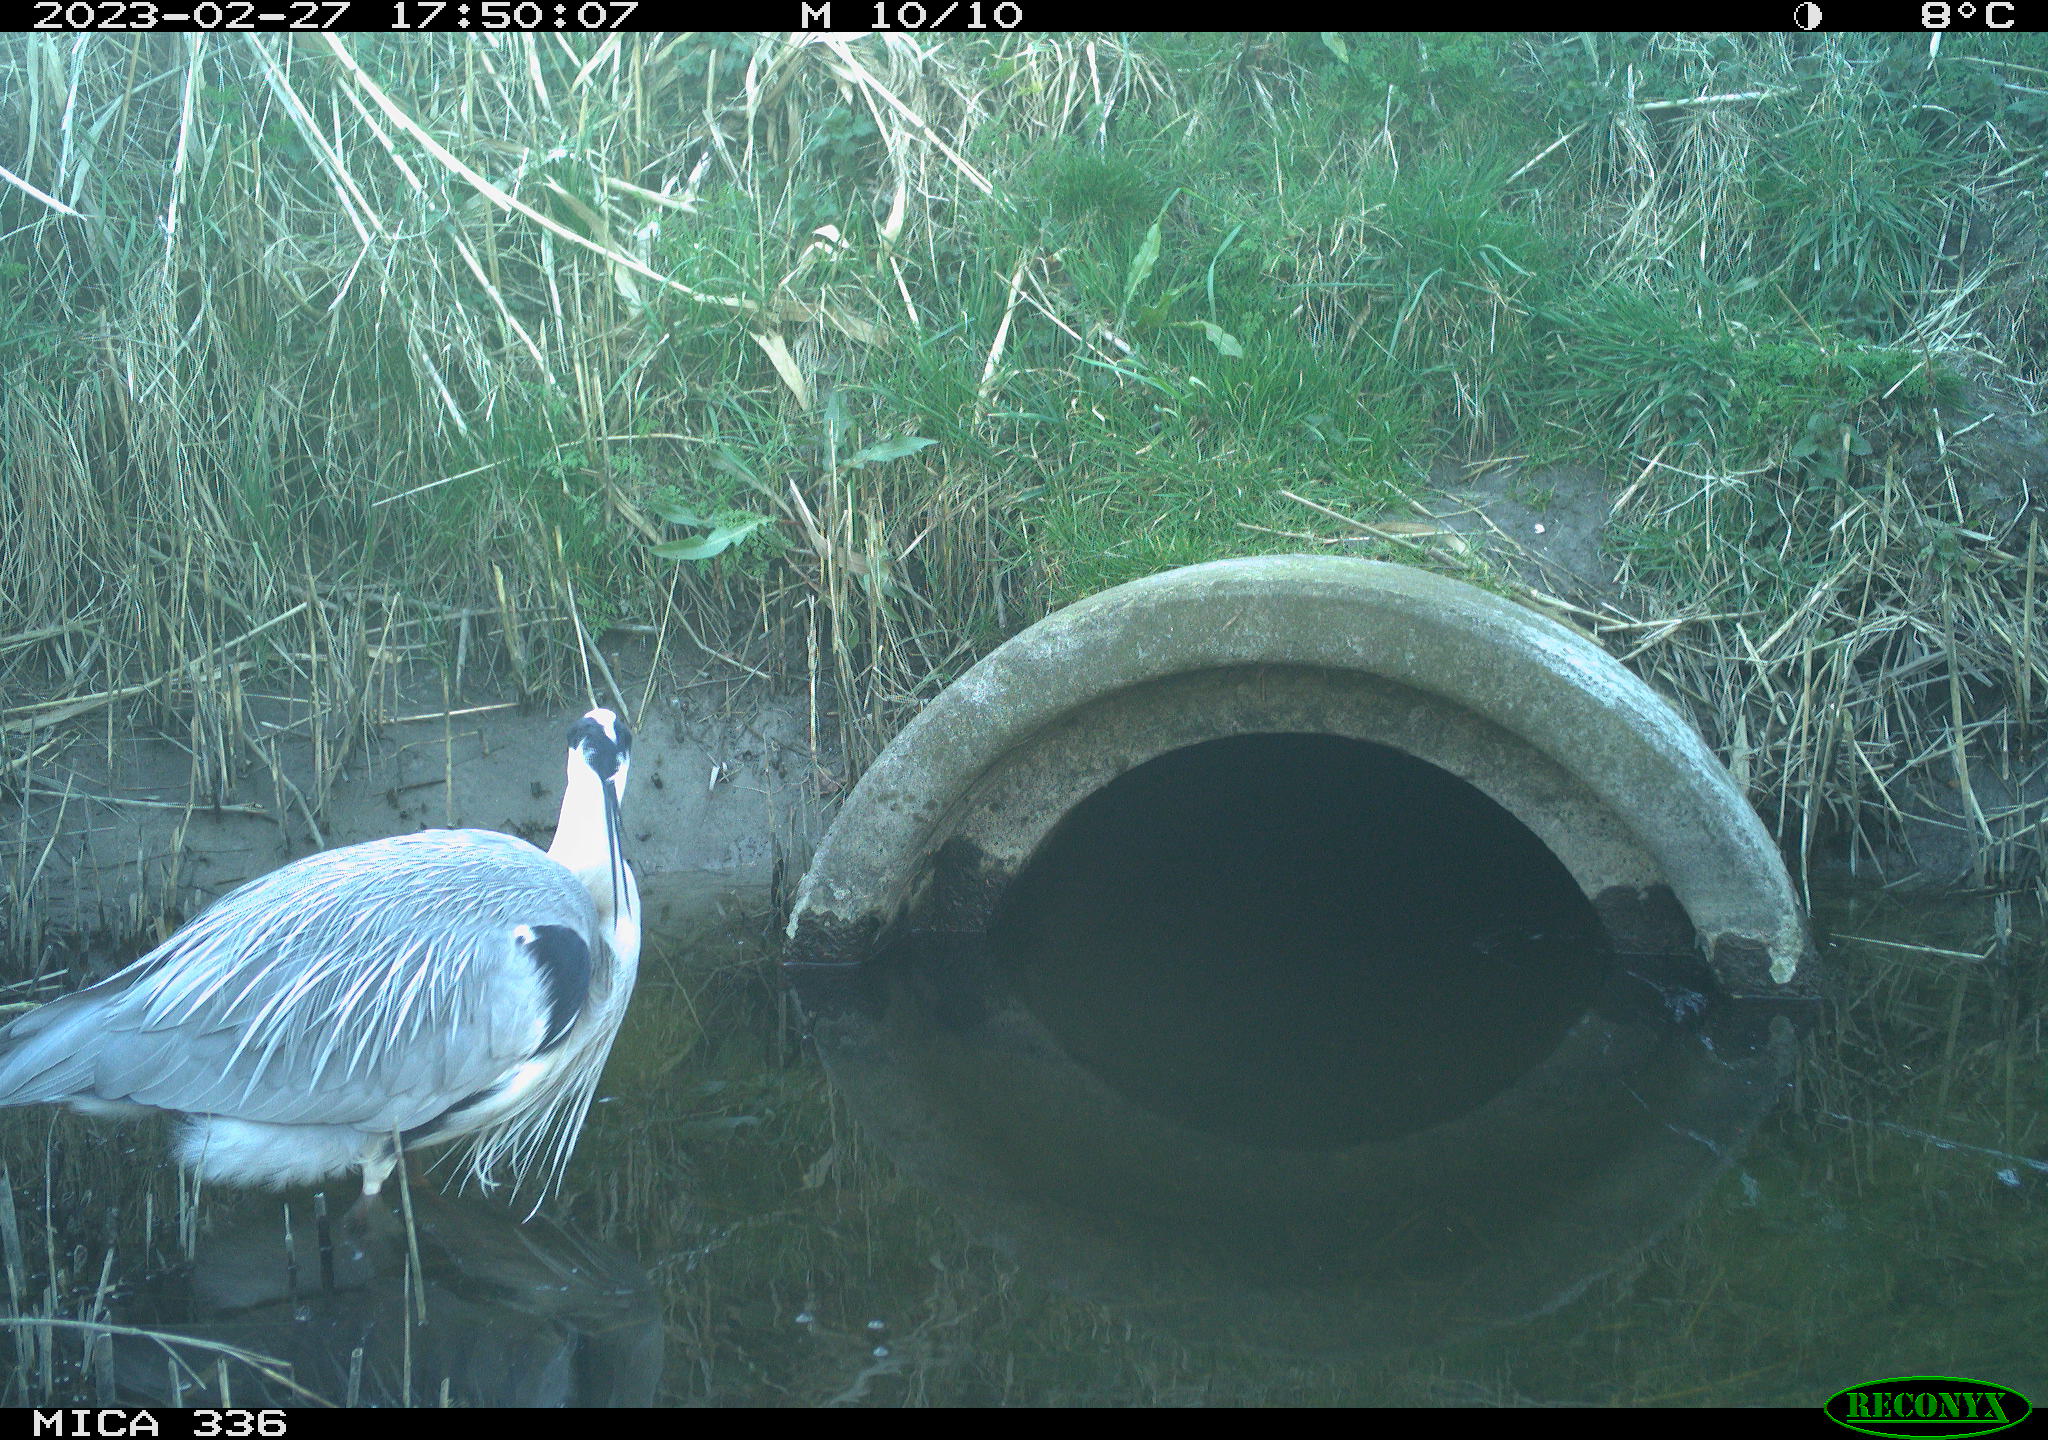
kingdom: Animalia
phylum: Chordata
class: Aves
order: Pelecaniformes
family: Ardeidae
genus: Ardea
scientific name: Ardea cinerea
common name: Grey heron
